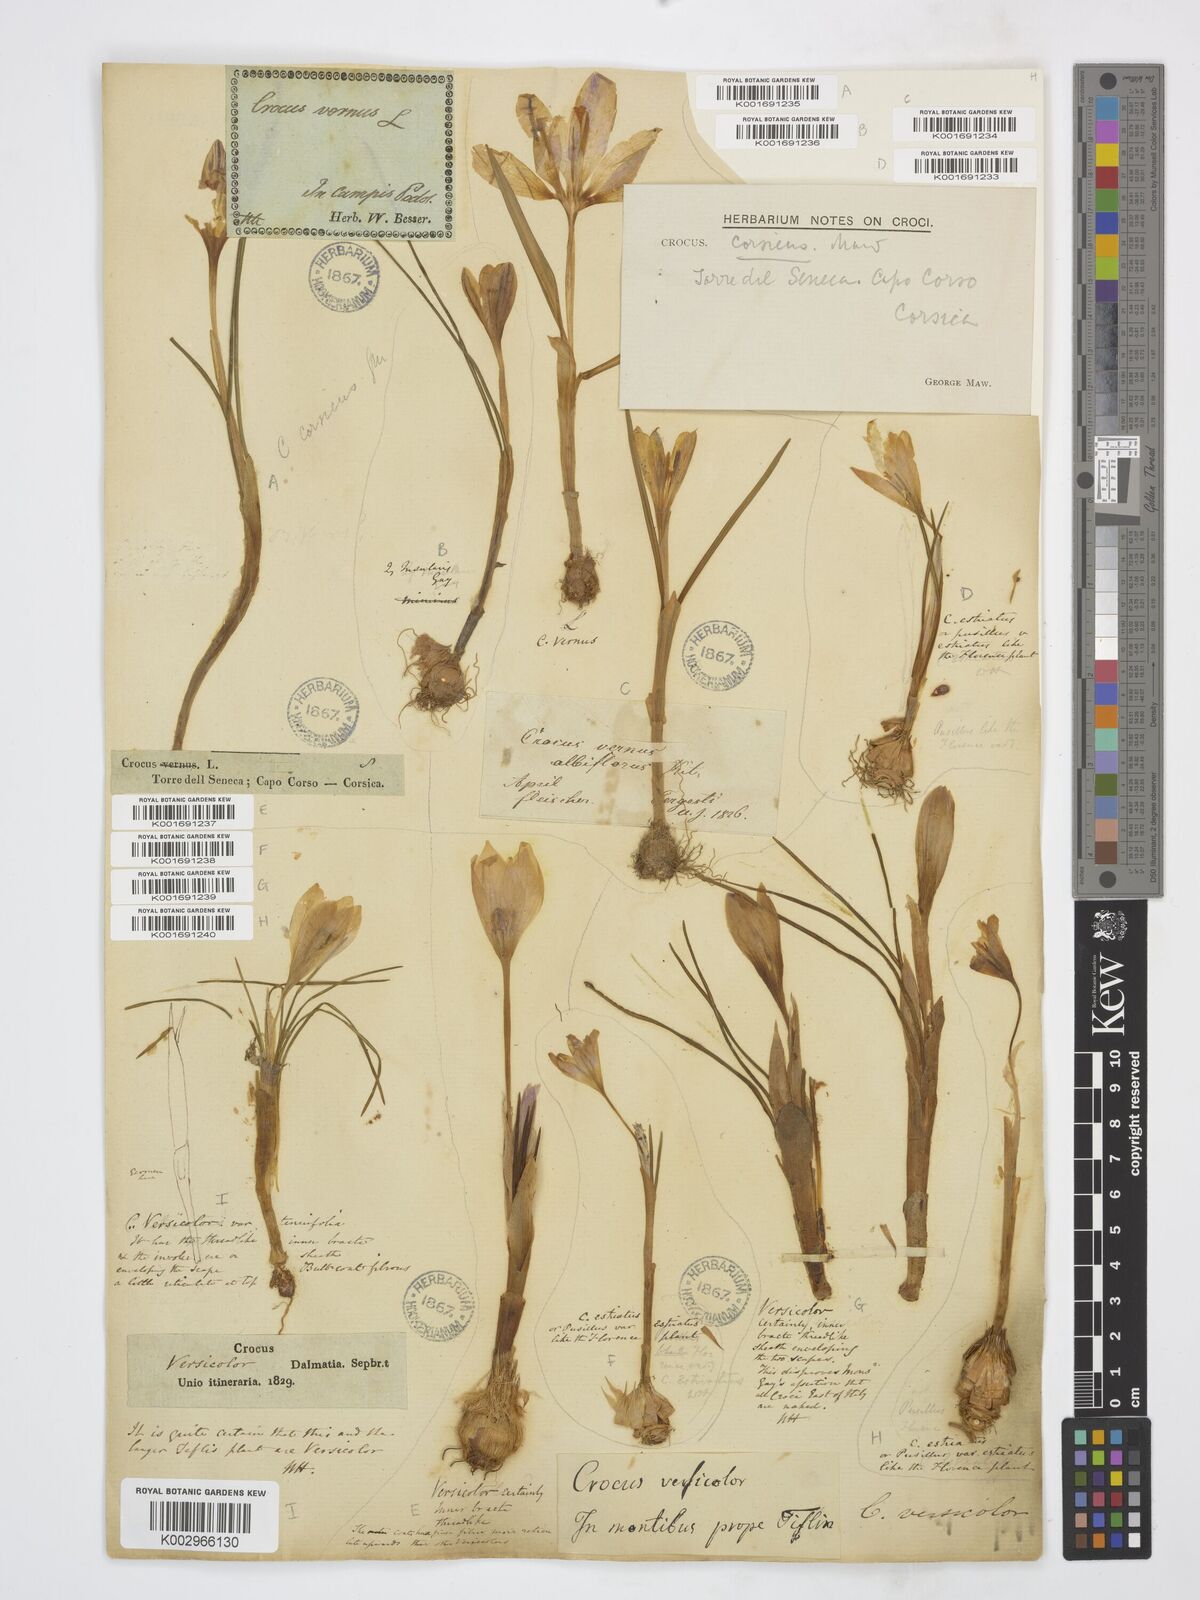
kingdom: Plantae
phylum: Tracheophyta
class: Liliopsida
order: Asparagales
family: Iridaceae
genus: Crocus
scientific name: Crocus versicolor
